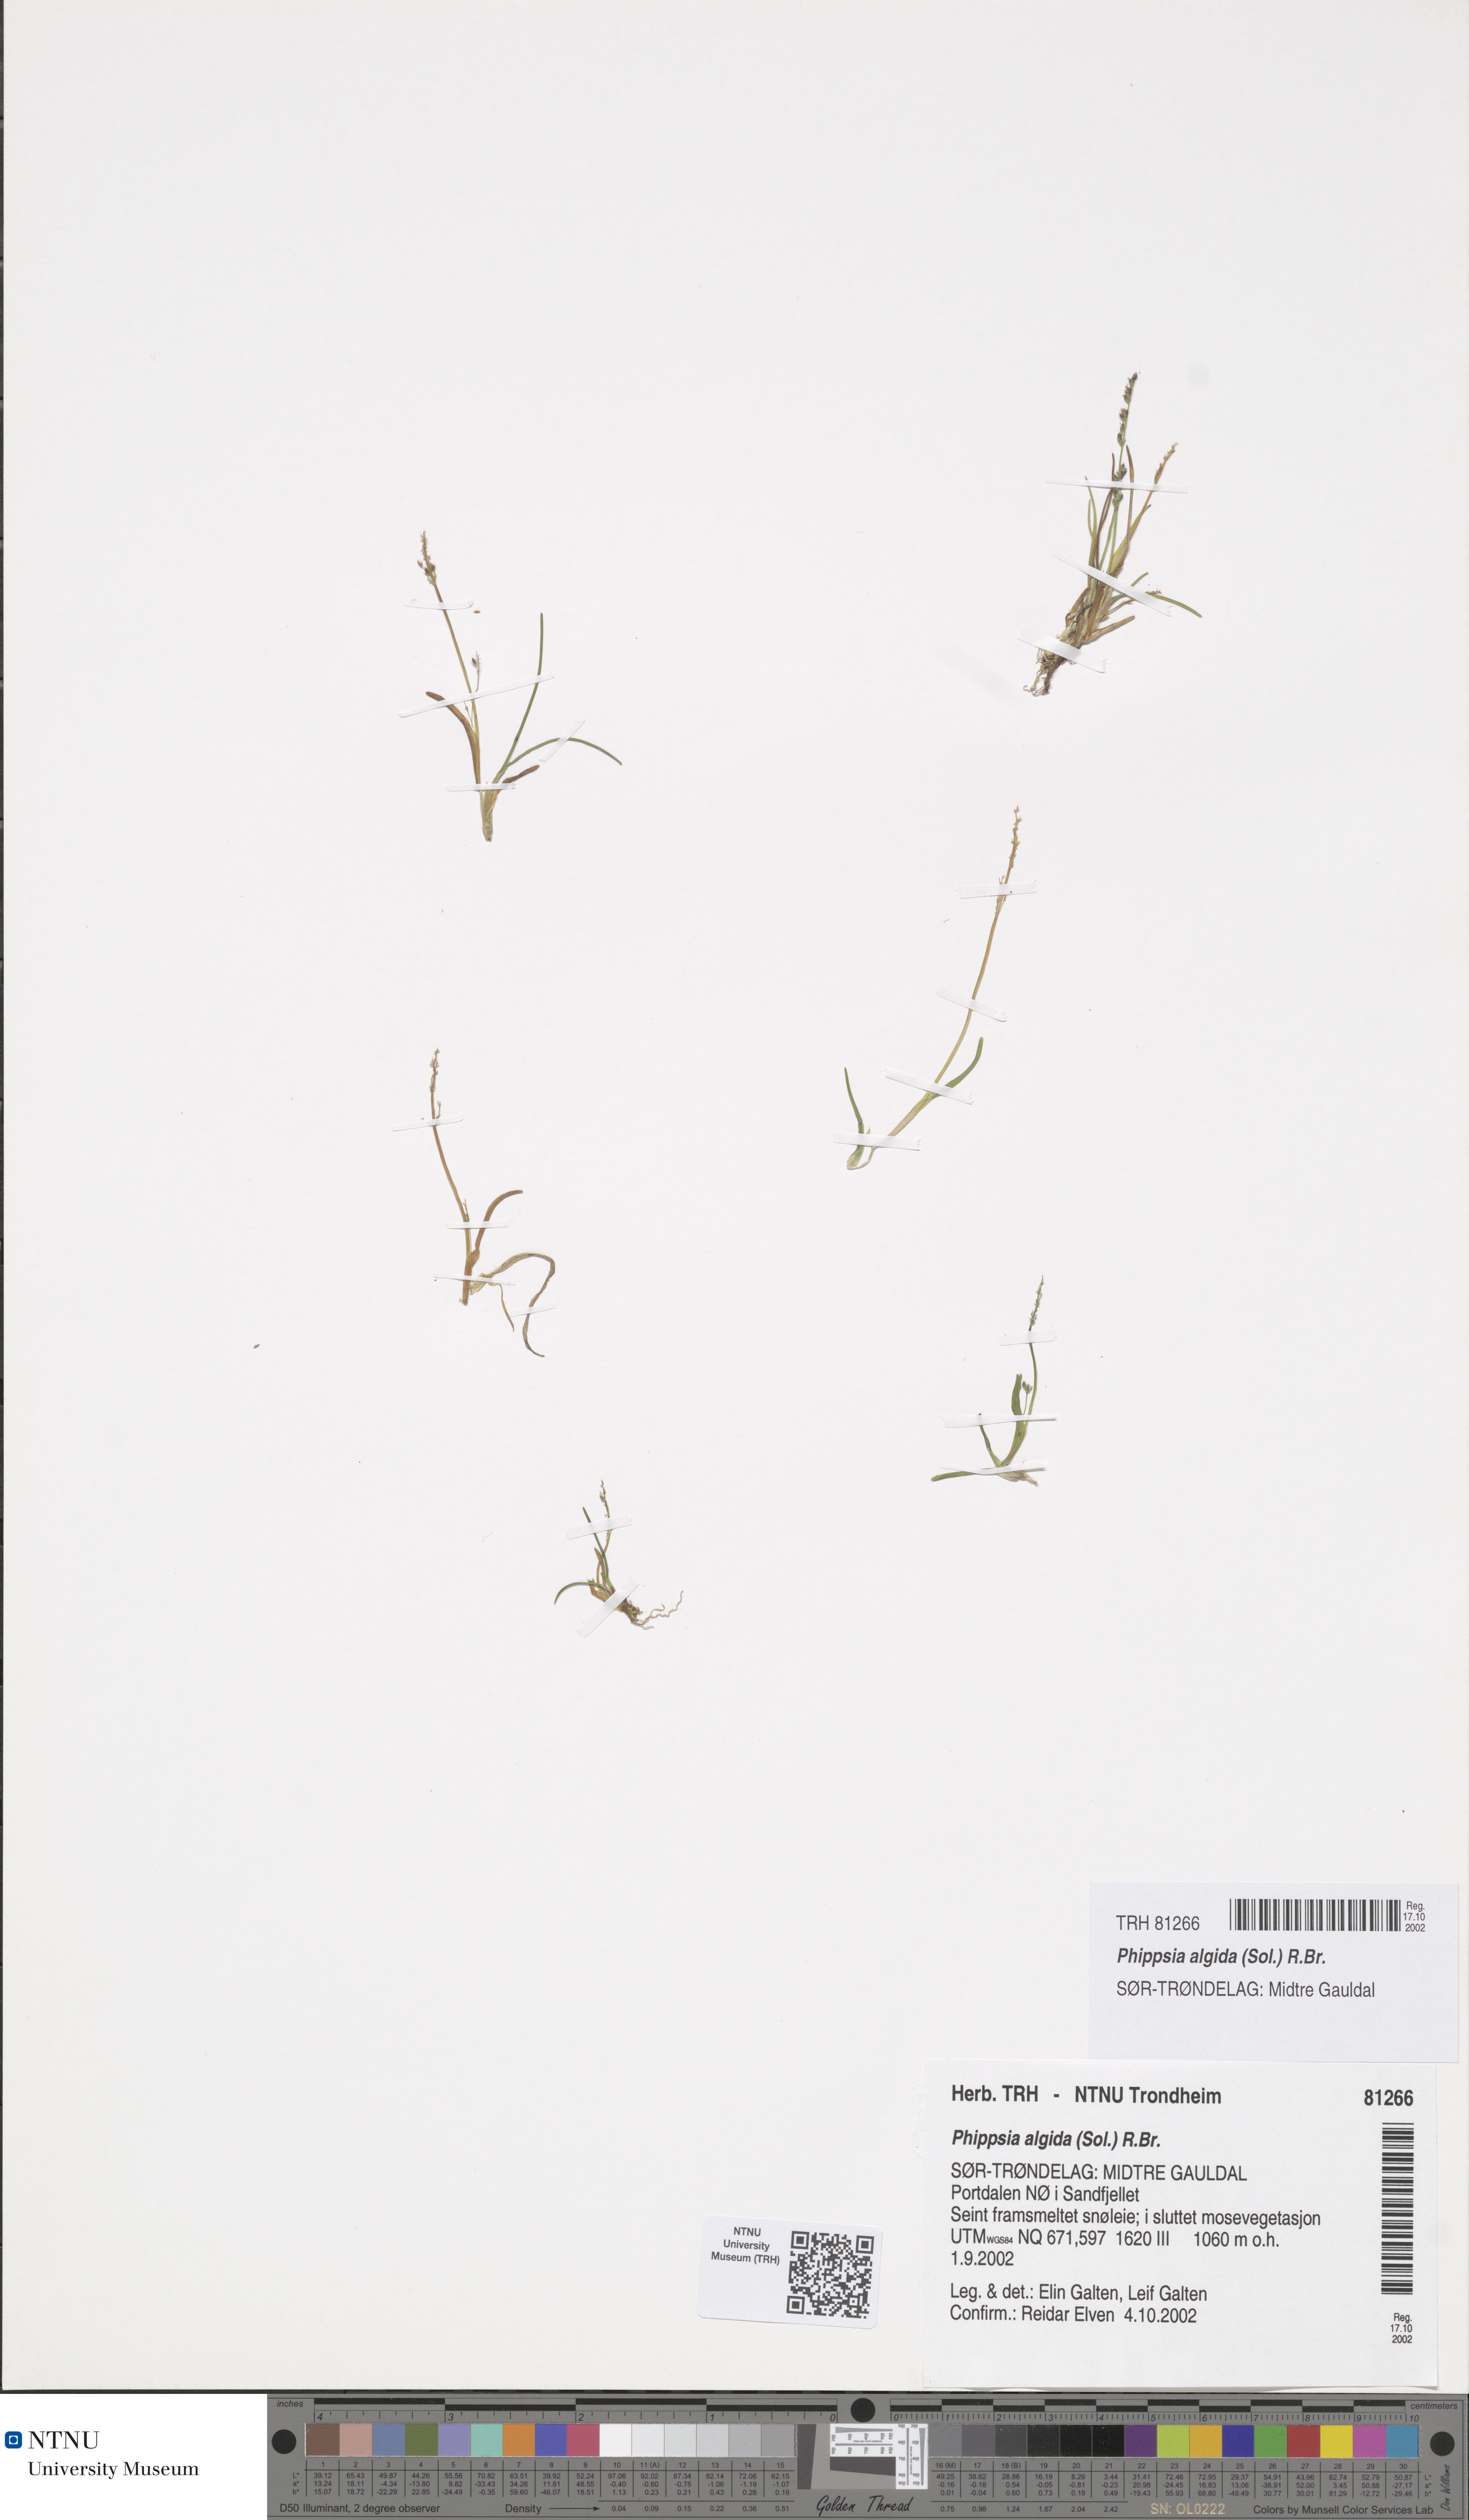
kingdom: Plantae
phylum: Tracheophyta
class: Liliopsida
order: Poales
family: Poaceae
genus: Phippsia
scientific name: Phippsia algida
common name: Ice grass
